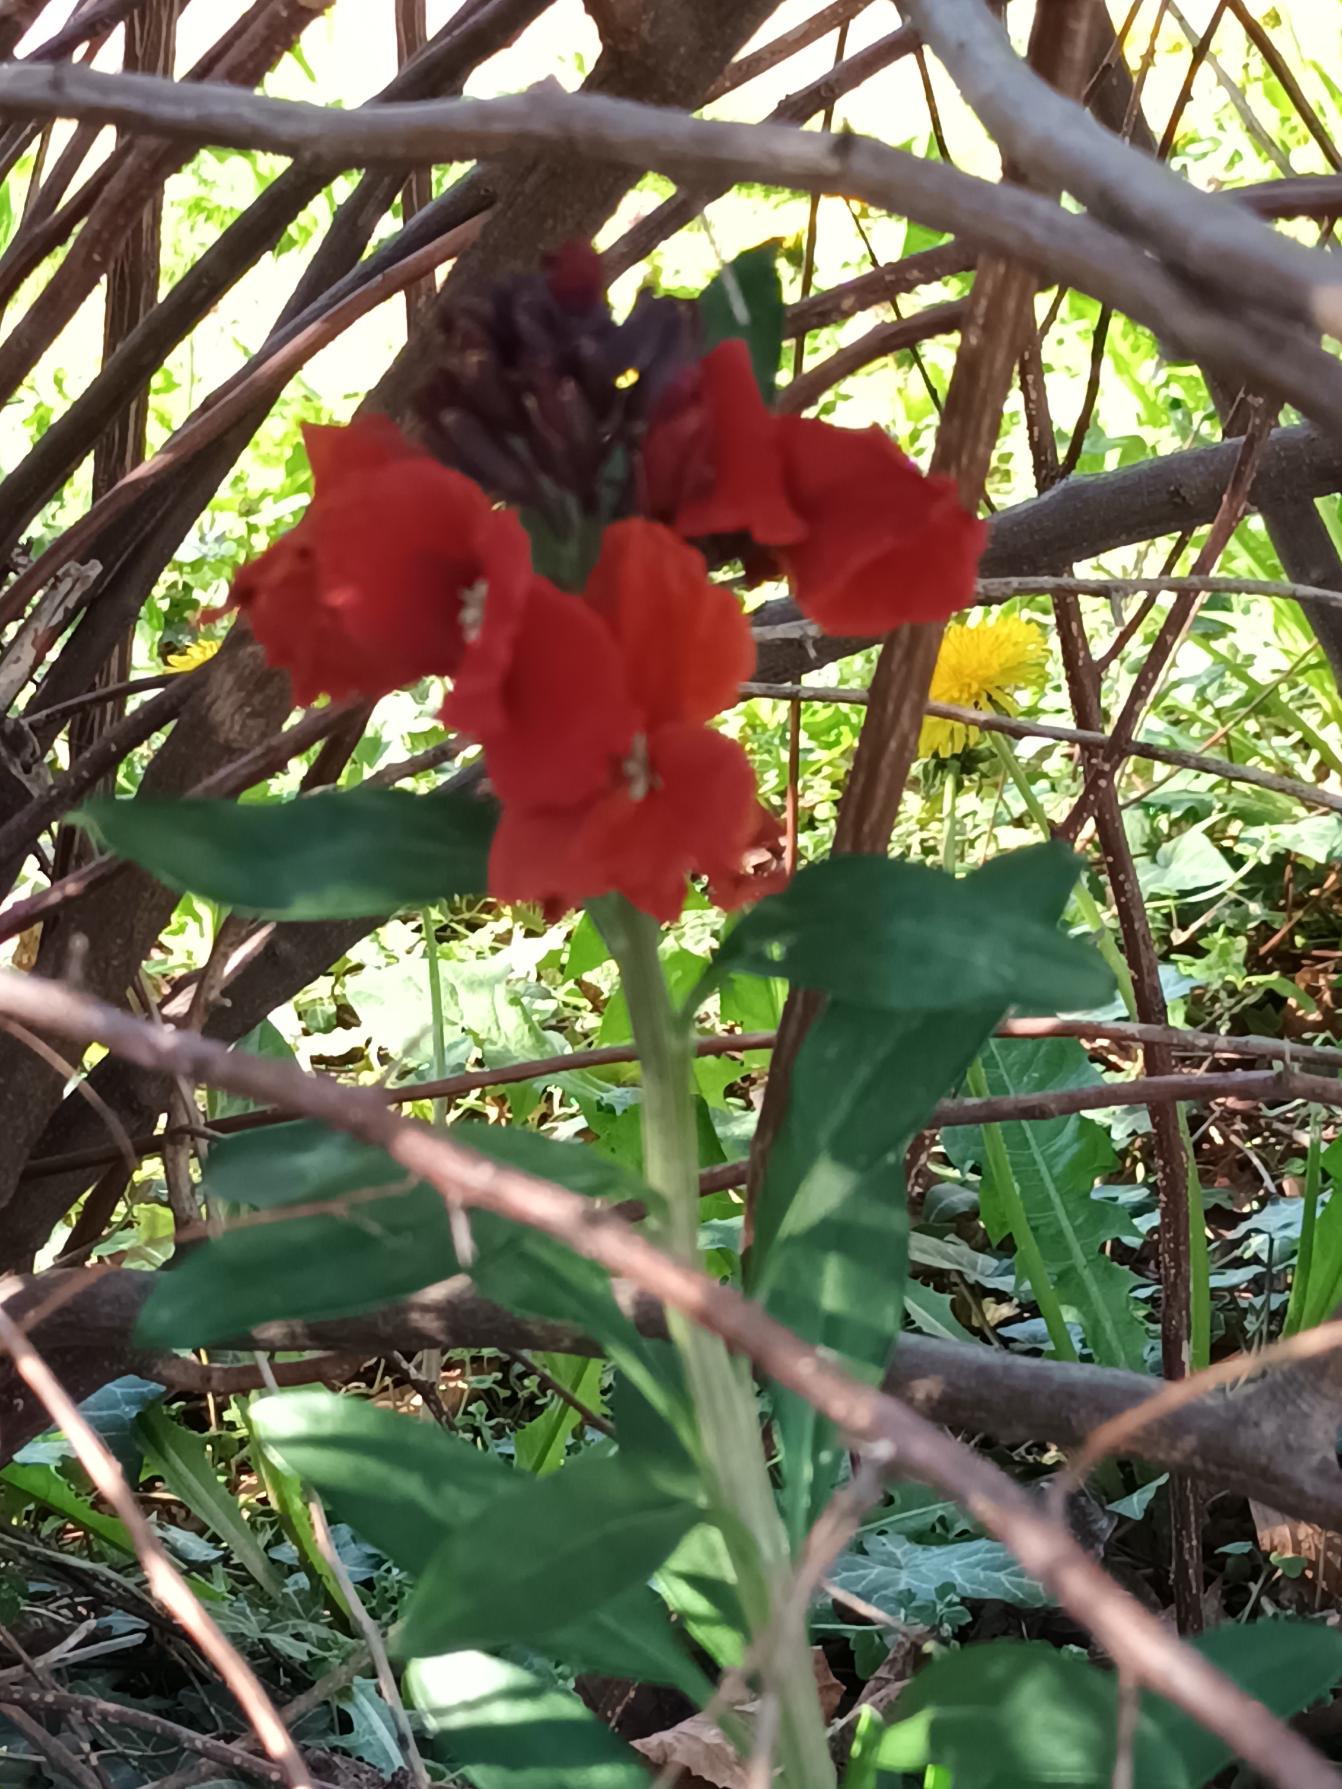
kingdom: Plantae
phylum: Tracheophyta
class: Magnoliopsida
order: Brassicales
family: Brassicaceae
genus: Erysimum
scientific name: Erysimum cheiri
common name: Gyldenlak
